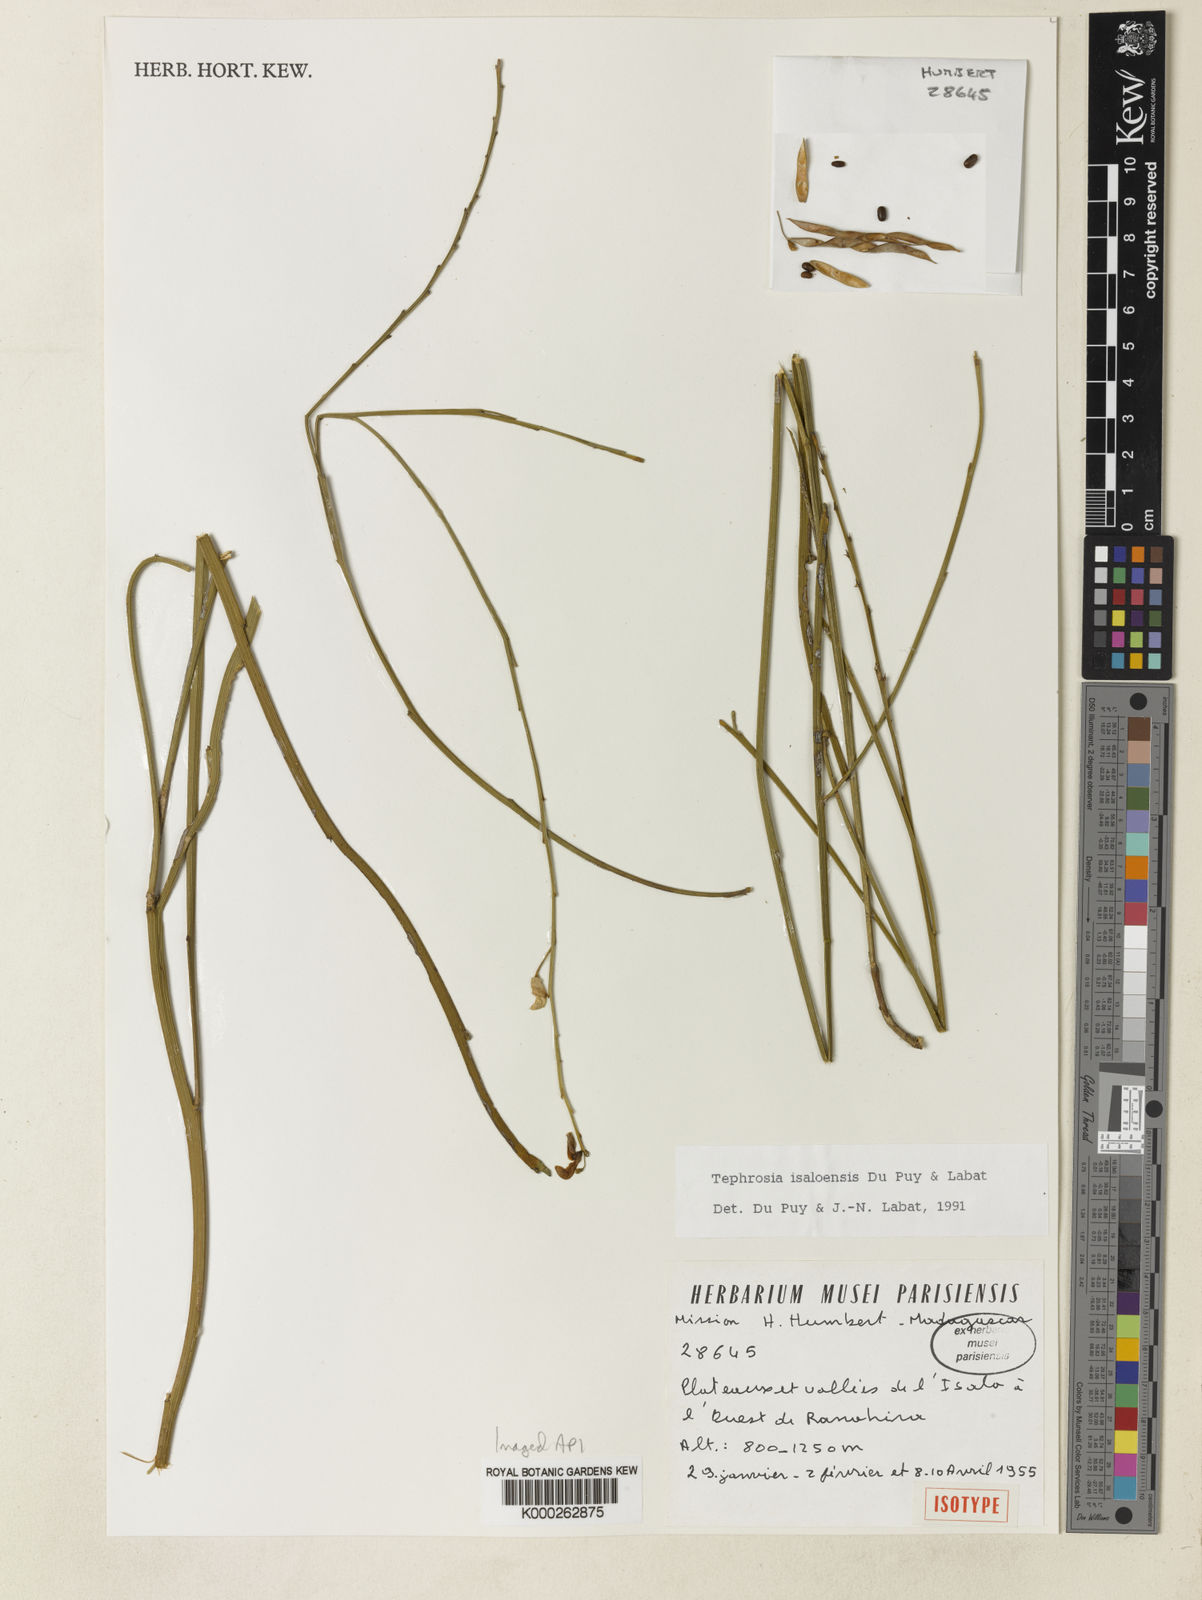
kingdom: Plantae
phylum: Tracheophyta
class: Magnoliopsida
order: Fabales
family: Fabaceae
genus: Tephrosia
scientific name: Tephrosia isaloensis
